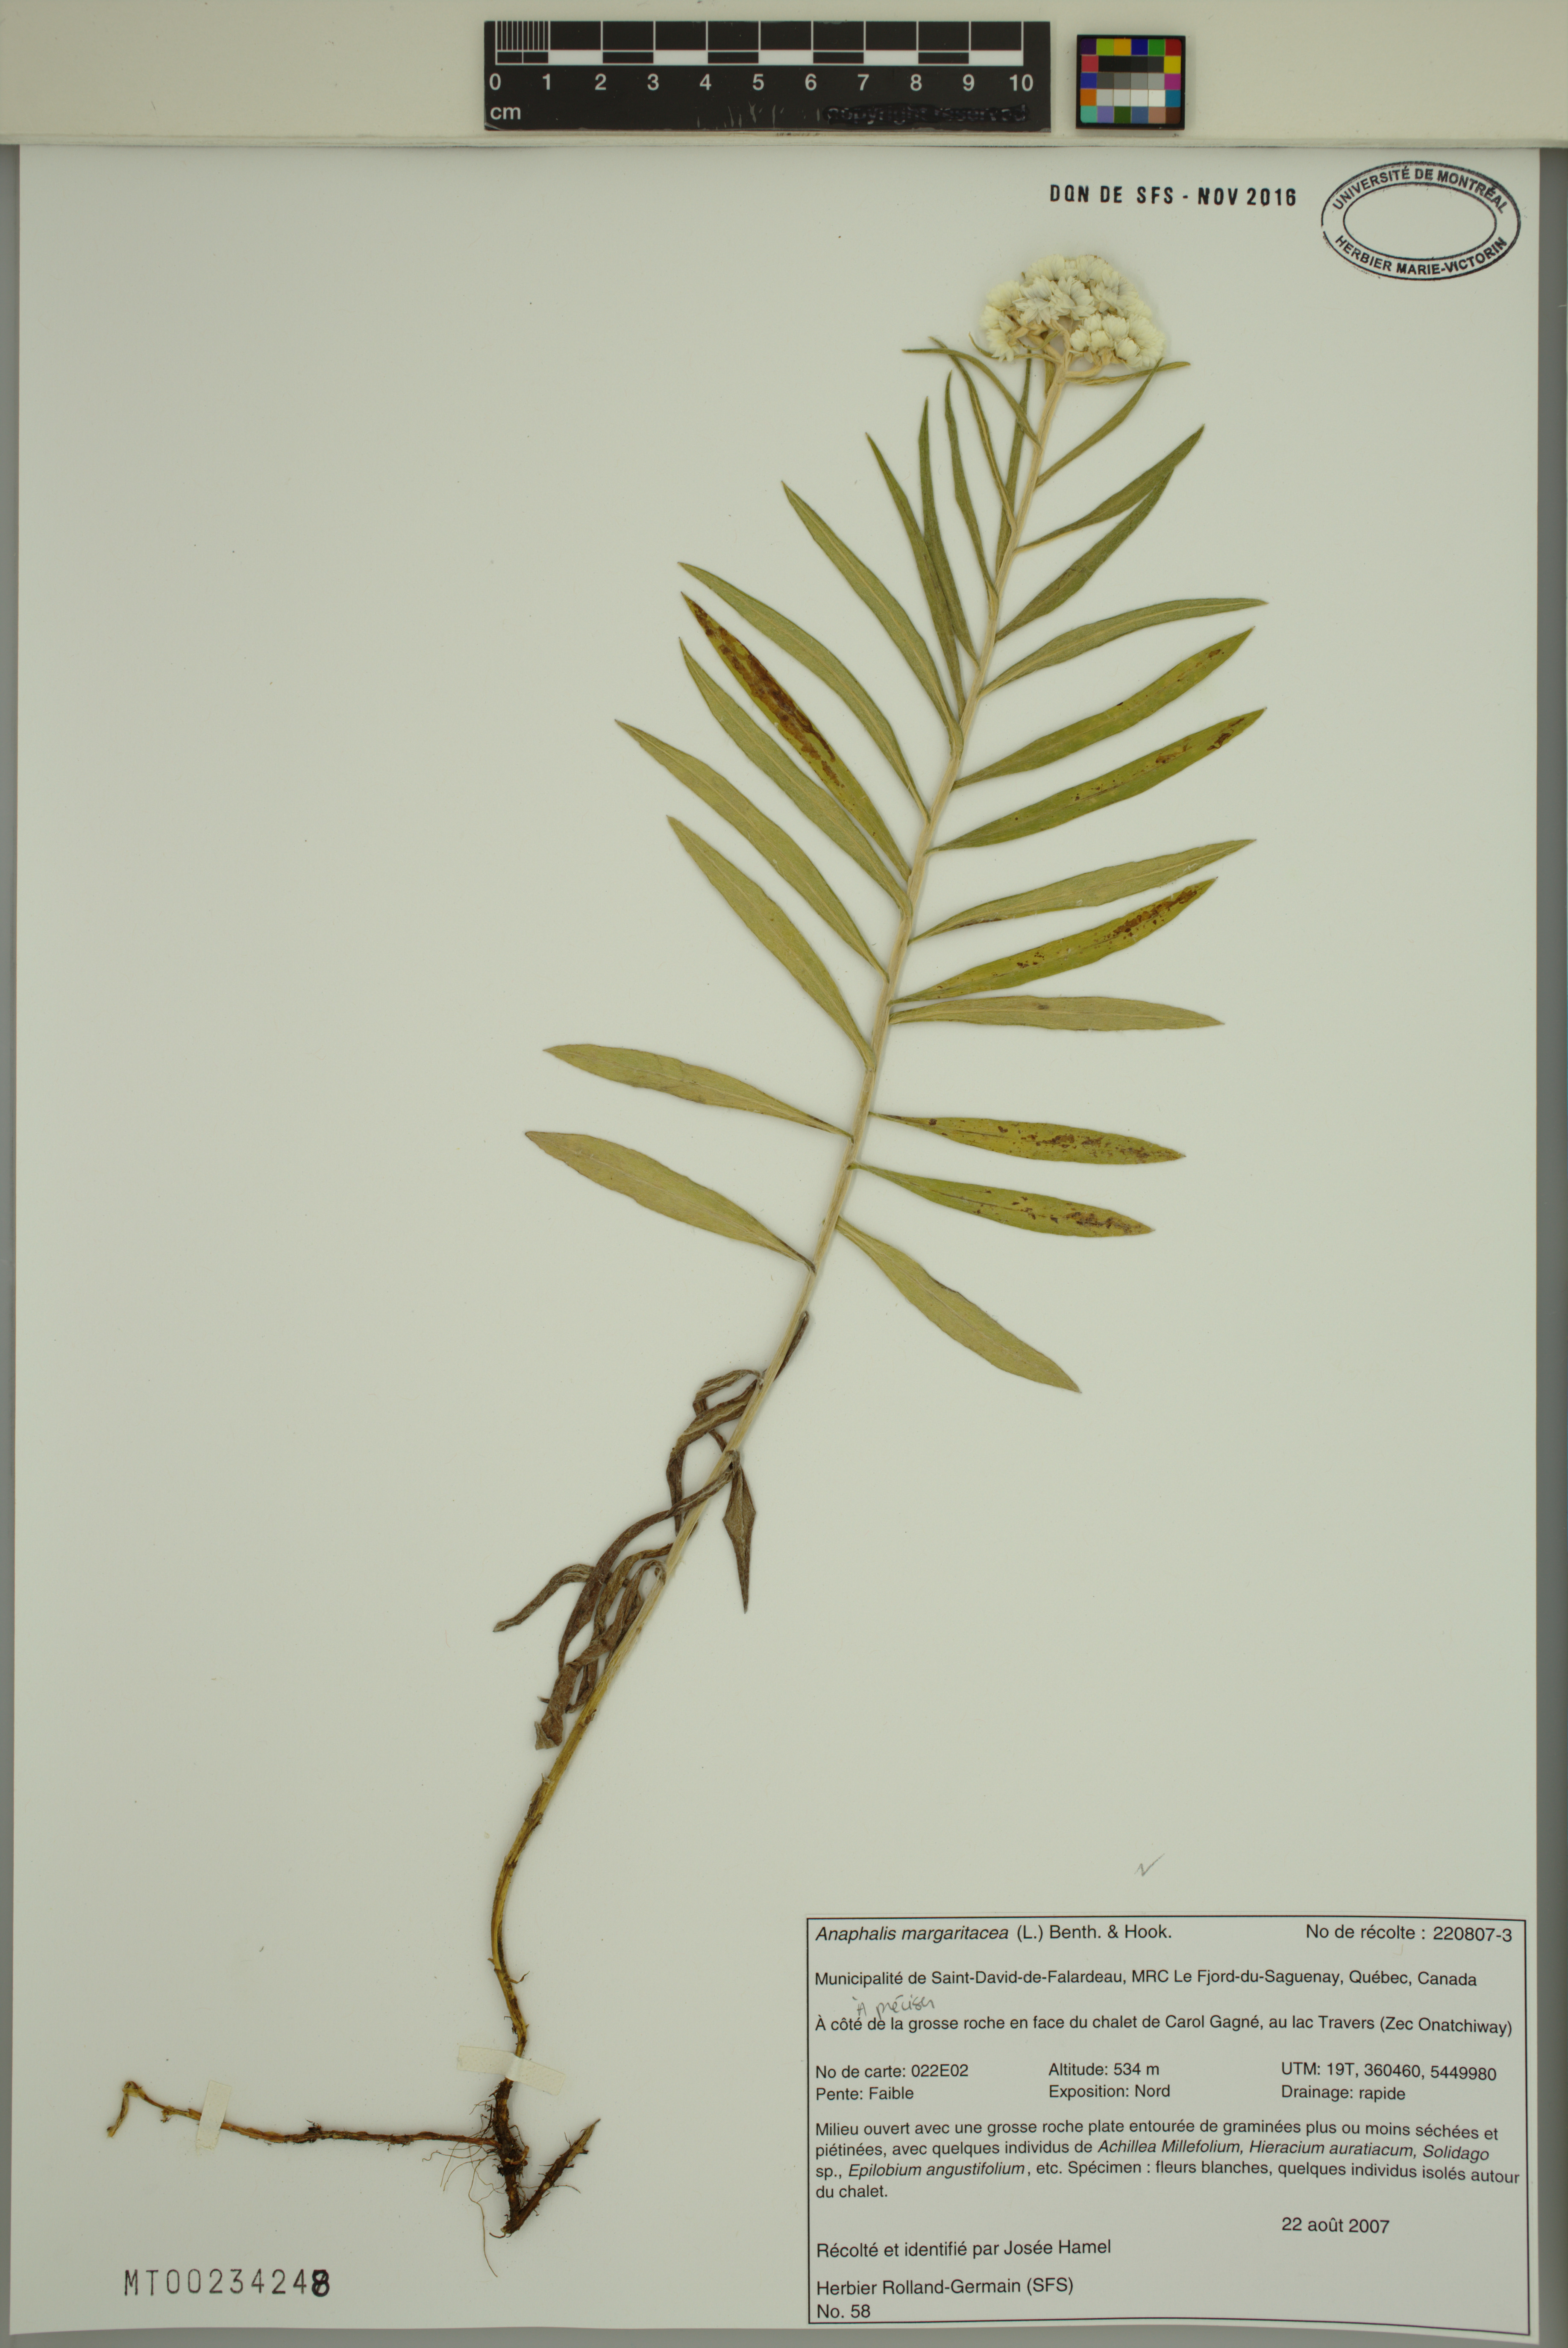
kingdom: Plantae
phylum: Tracheophyta
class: Magnoliopsida
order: Asterales
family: Asteraceae
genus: Anaphalis
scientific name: Anaphalis margaritacea
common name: Pearly everlasting
